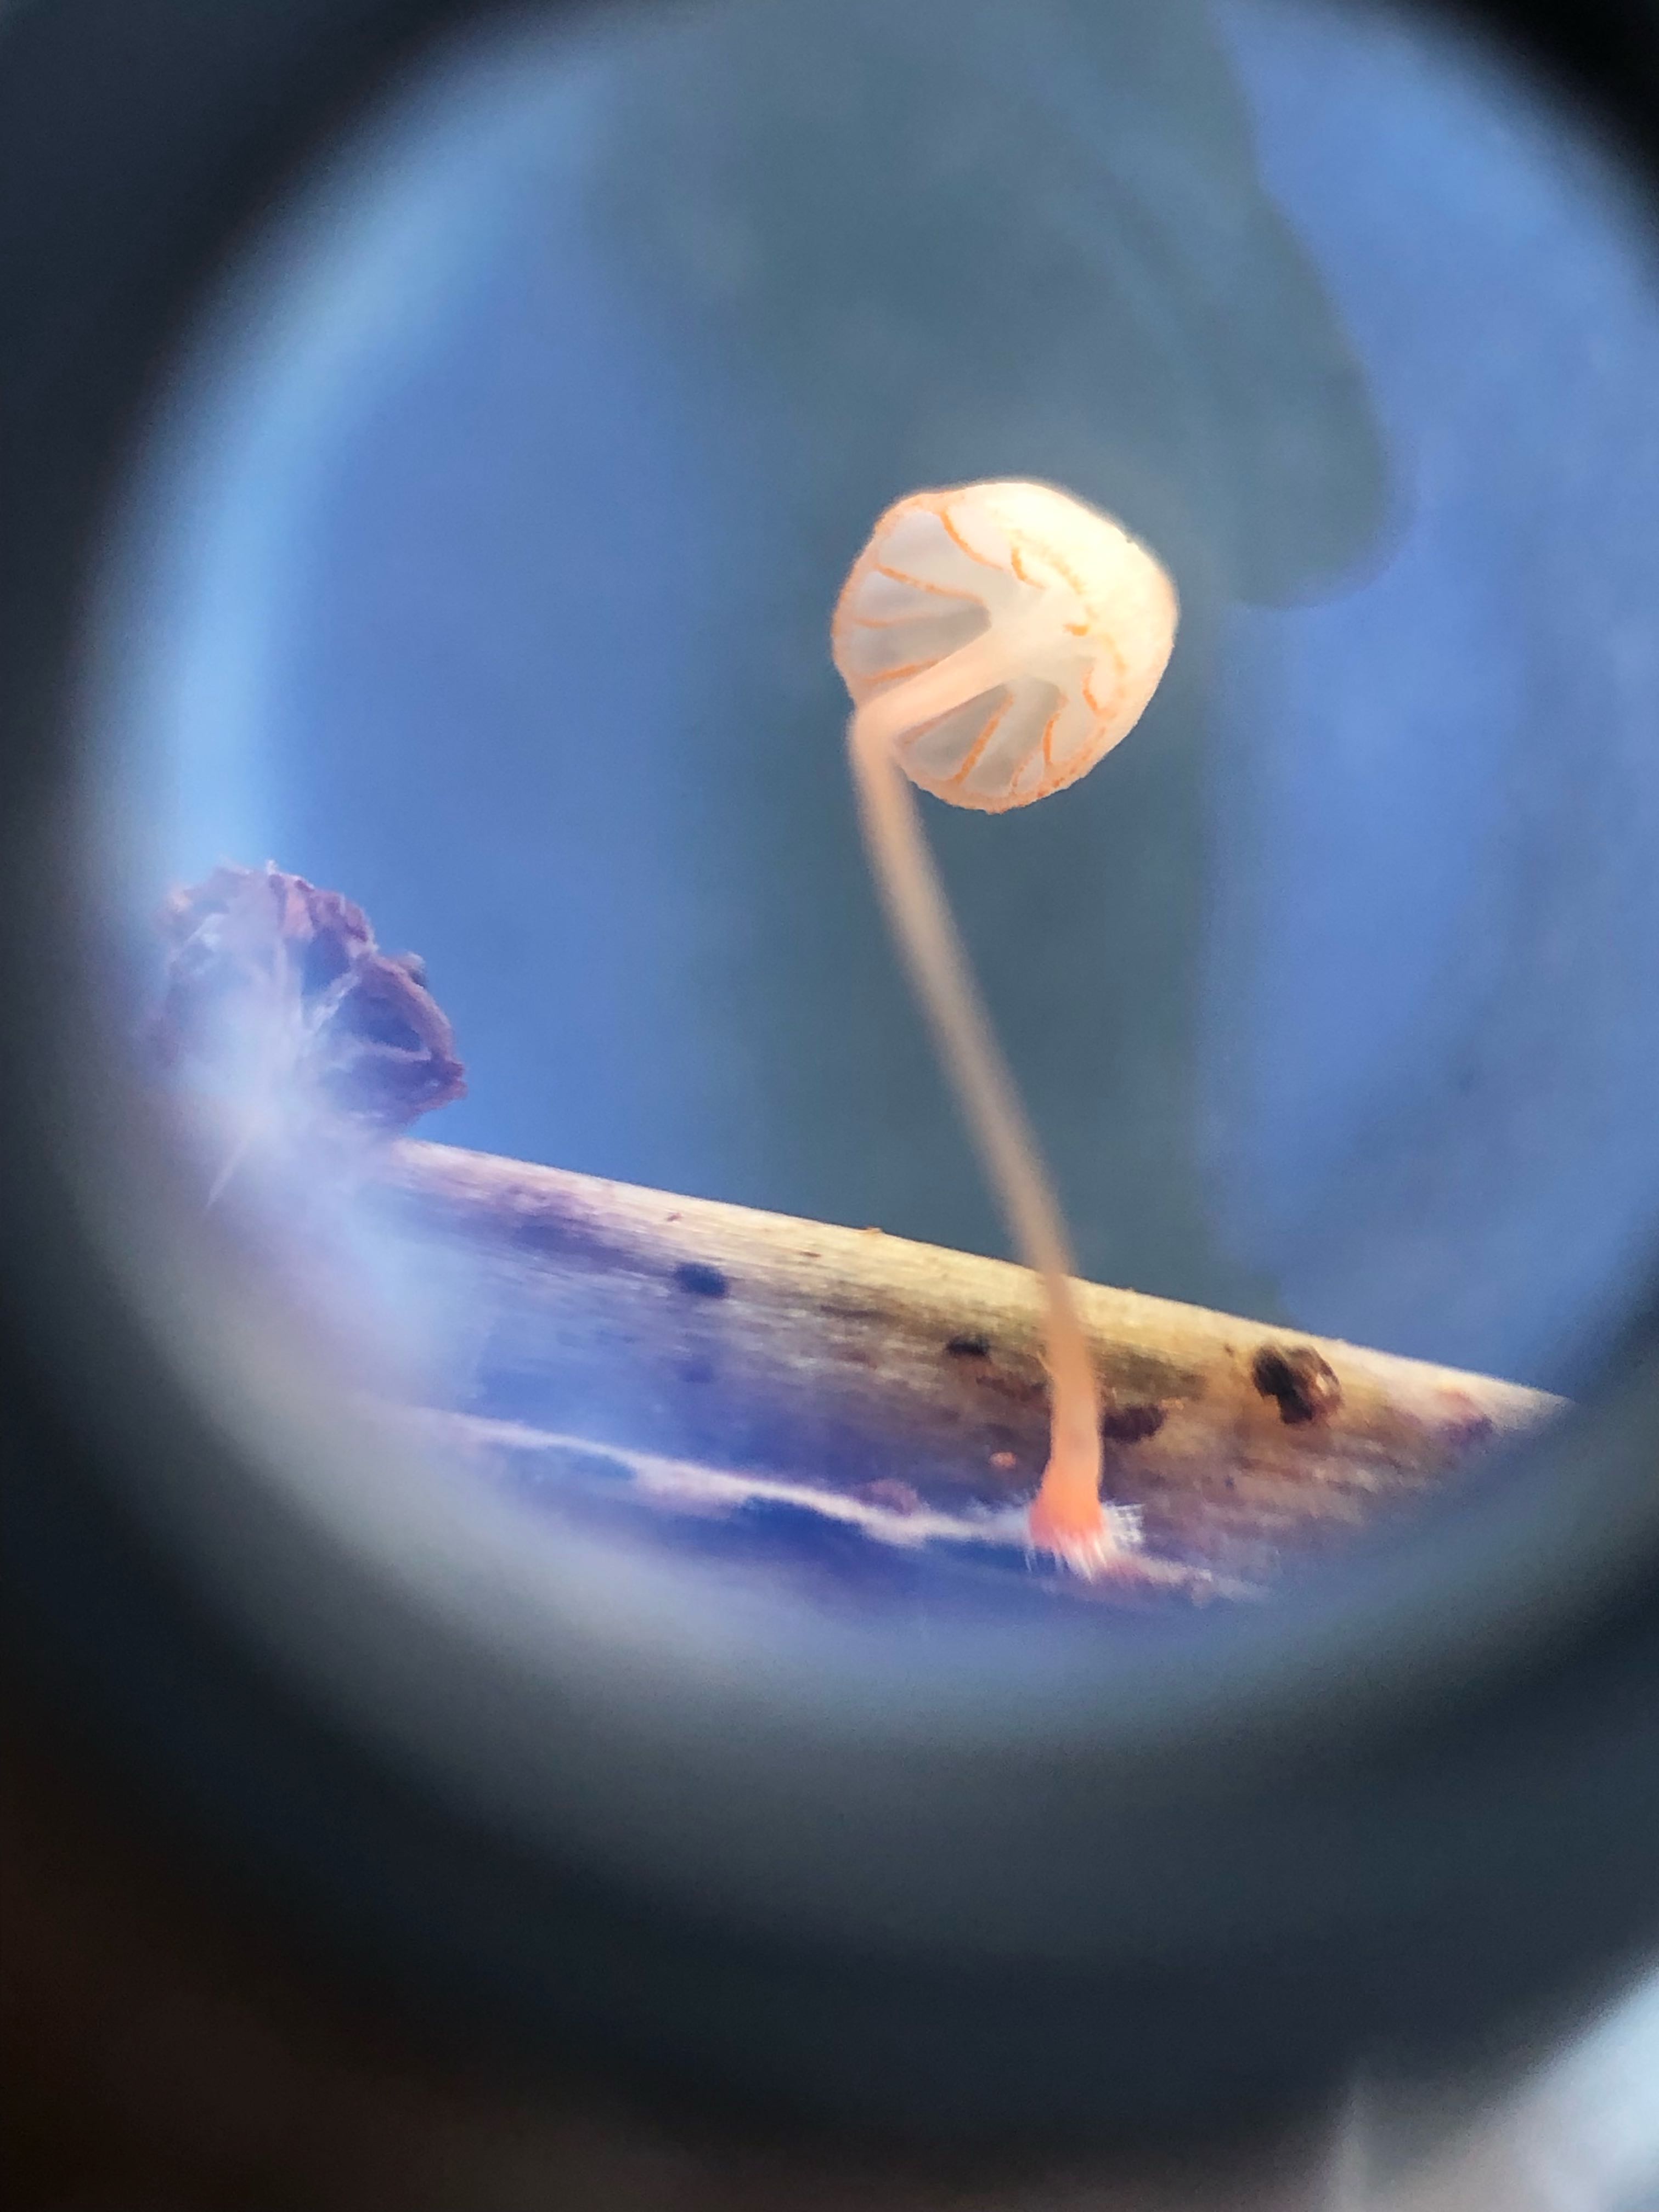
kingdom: Fungi
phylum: Basidiomycota
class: Agaricomycetes
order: Agaricales
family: Mycenaceae
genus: Mycena
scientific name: Mycena pterigena
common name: bregne-huesvamp
